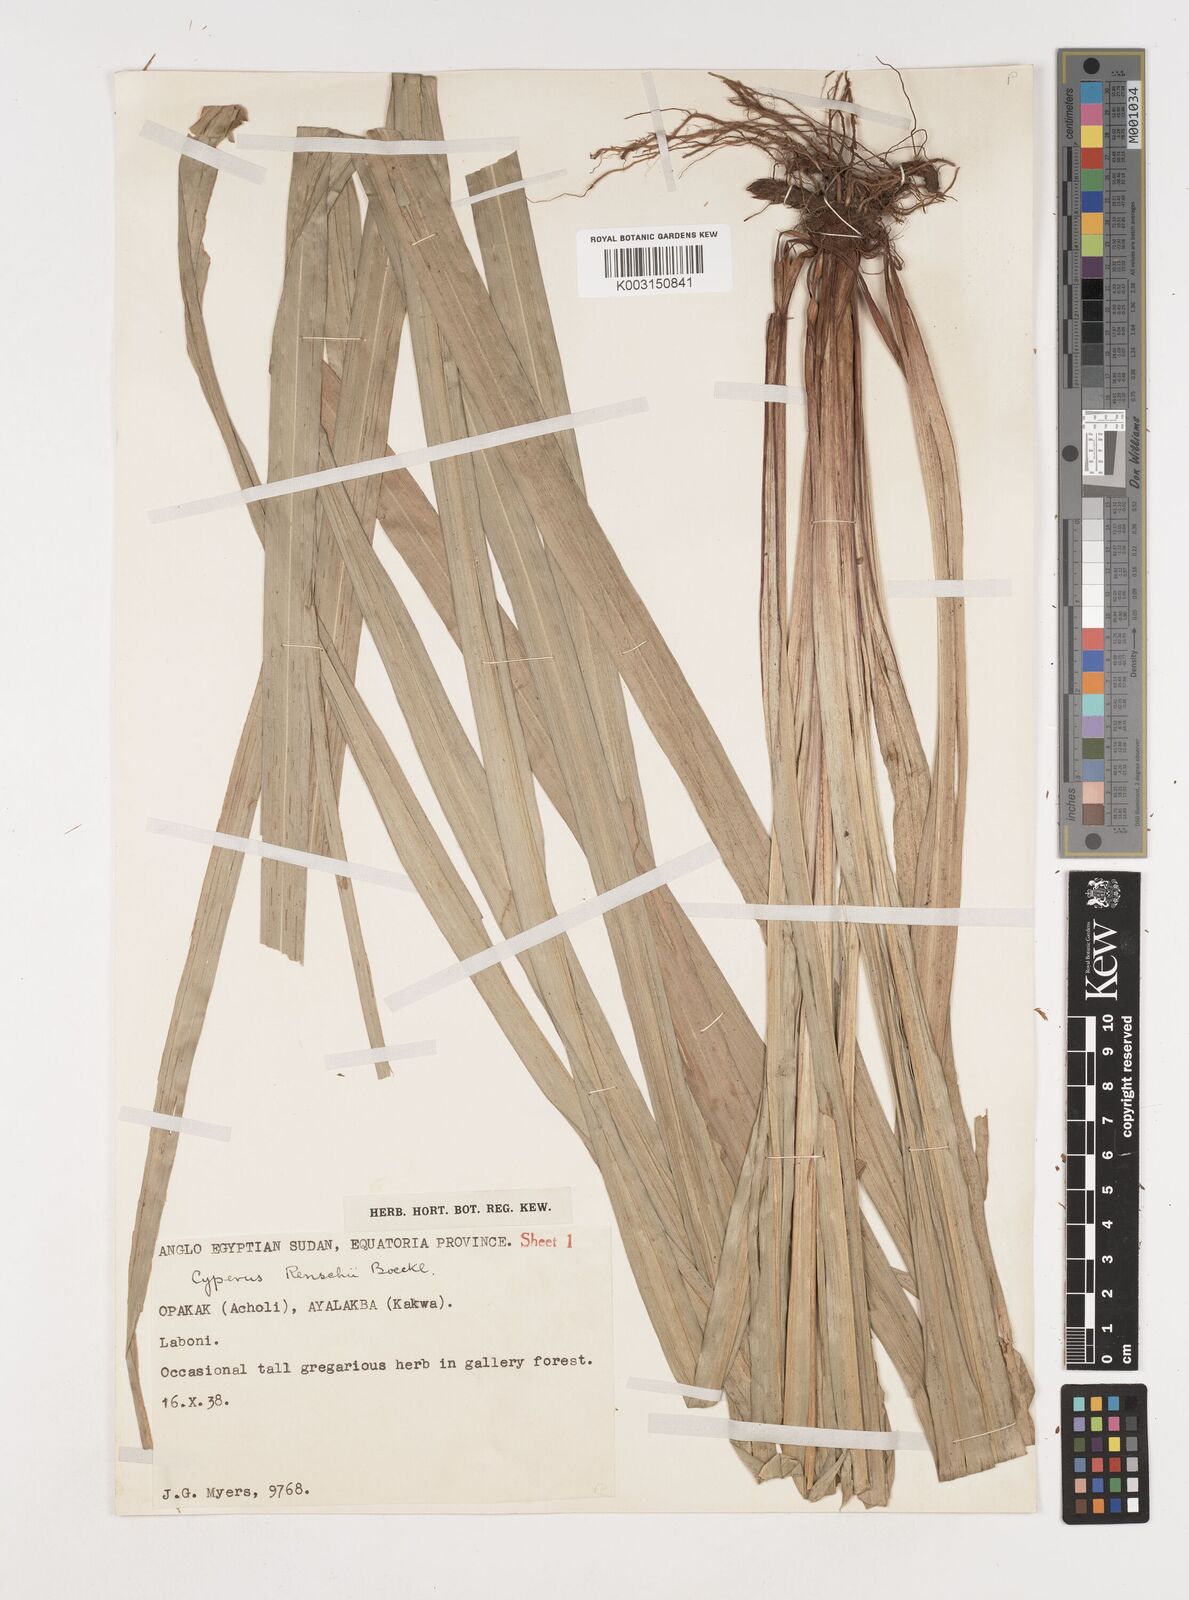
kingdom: Plantae
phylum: Tracheophyta
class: Liliopsida
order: Poales
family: Cyperaceae
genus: Cyperus
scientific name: Cyperus renschii
